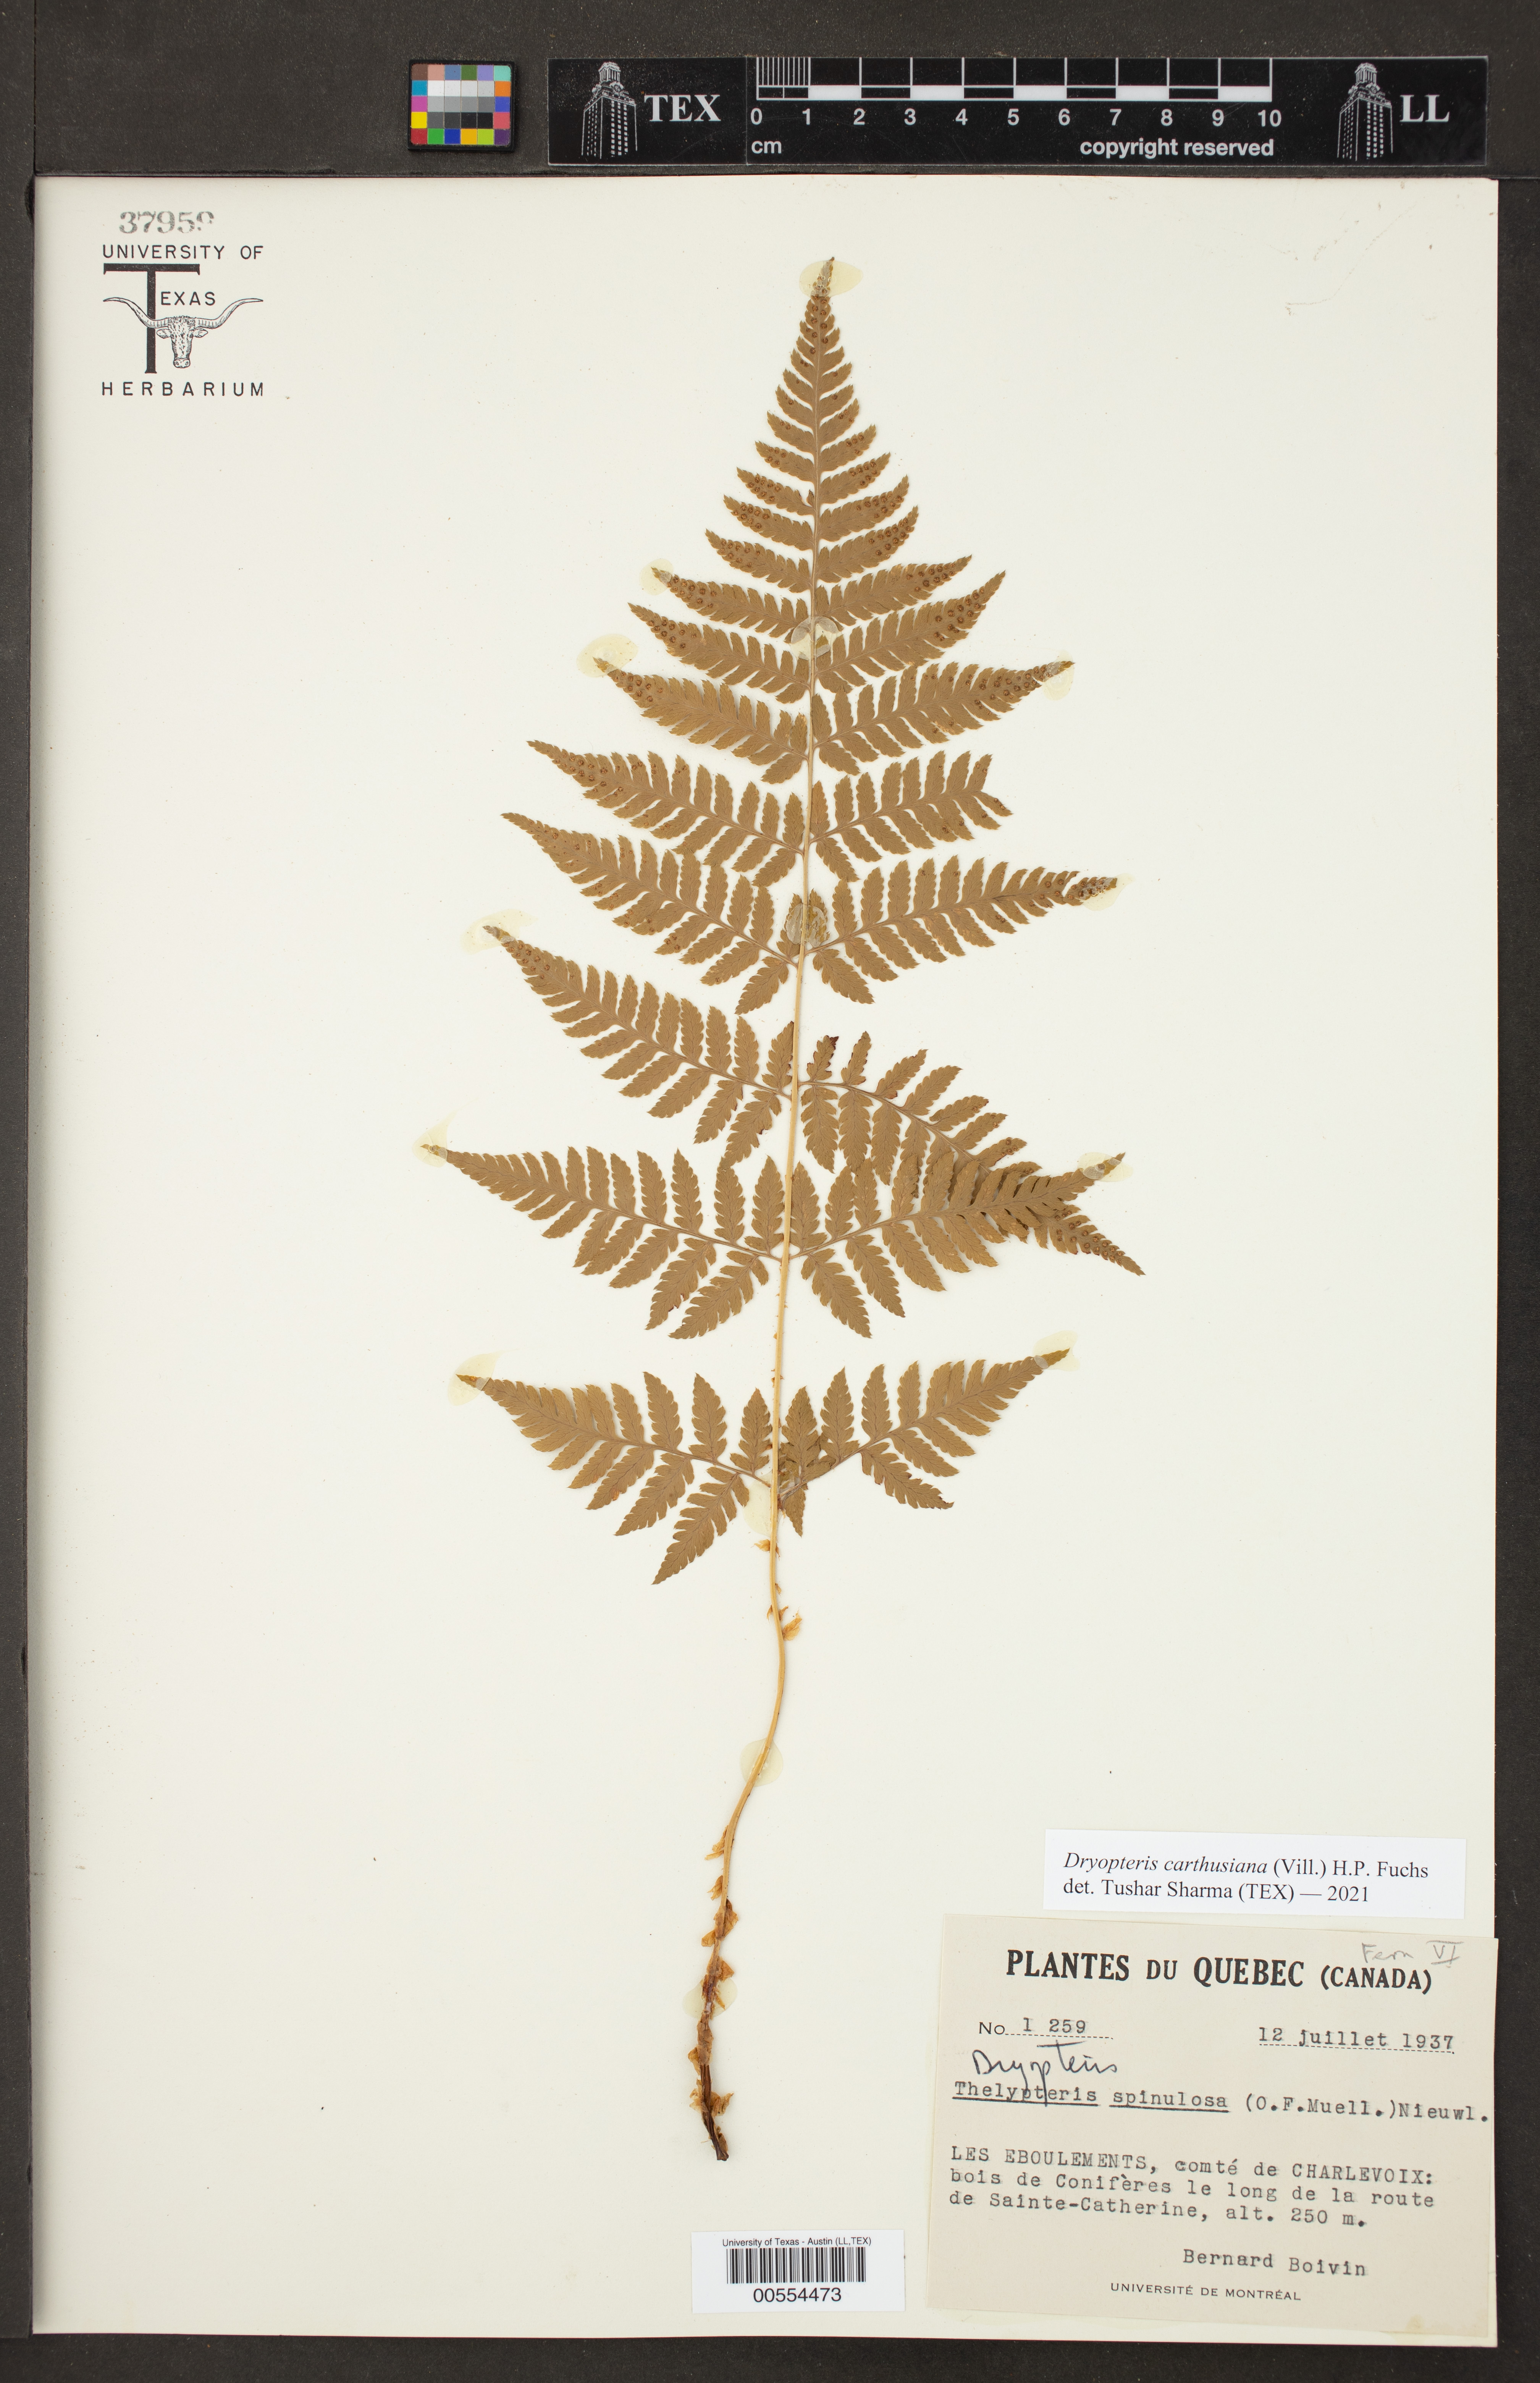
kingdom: Plantae
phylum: Tracheophyta
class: Polypodiopsida
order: Polypodiales
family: Dryopteridaceae
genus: Dryopteris
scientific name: Dryopteris carthusiana
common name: Narrow buckler-fern
